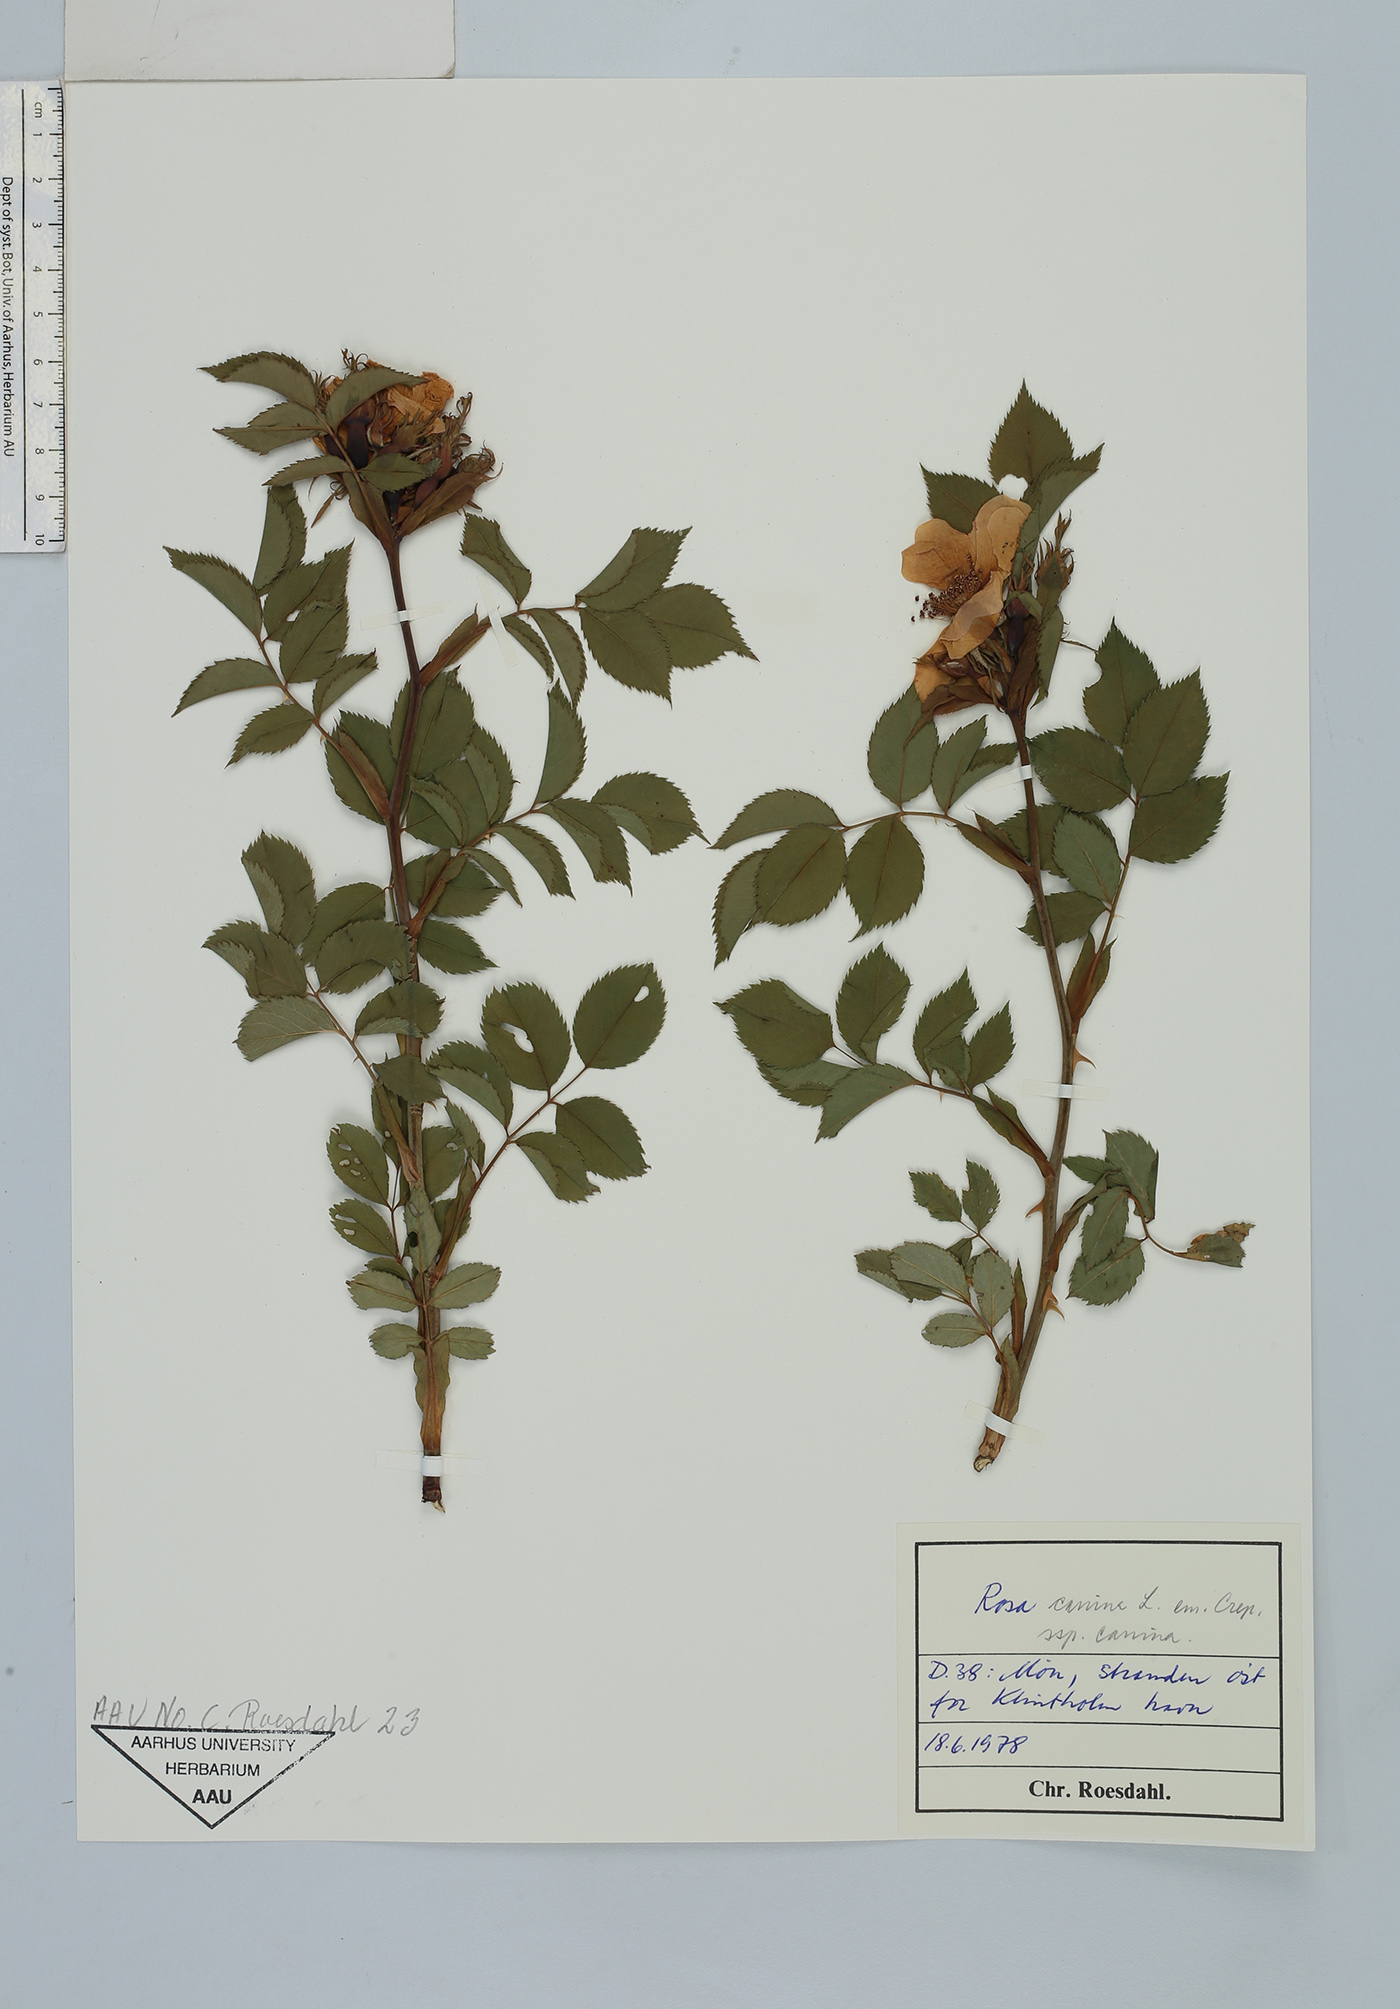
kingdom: Plantae
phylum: Tracheophyta
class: Magnoliopsida
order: Rosales
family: Rosaceae
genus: Rosa
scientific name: Rosa canina
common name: Dog rose
